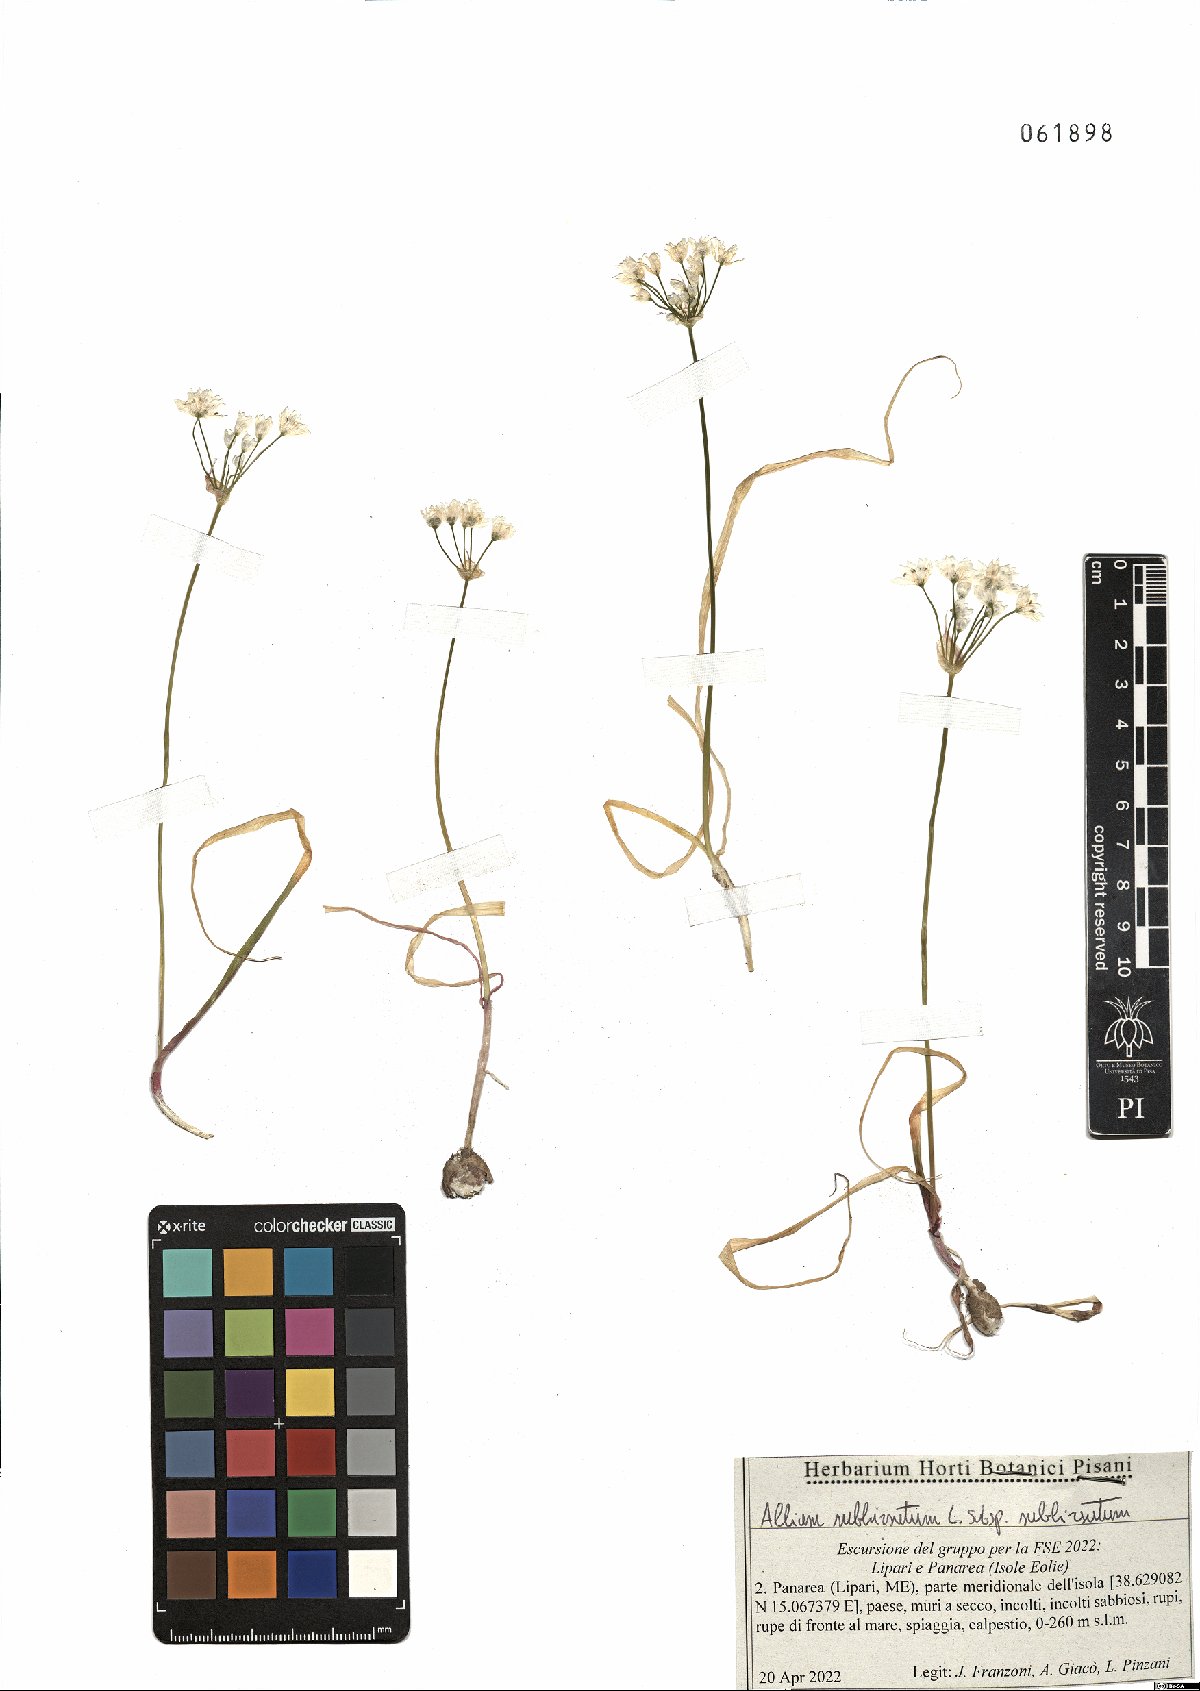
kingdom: Plantae
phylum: Tracheophyta
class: Liliopsida
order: Asparagales
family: Amaryllidaceae
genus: Allium
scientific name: Allium subhirsutum
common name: Hairy garlic
